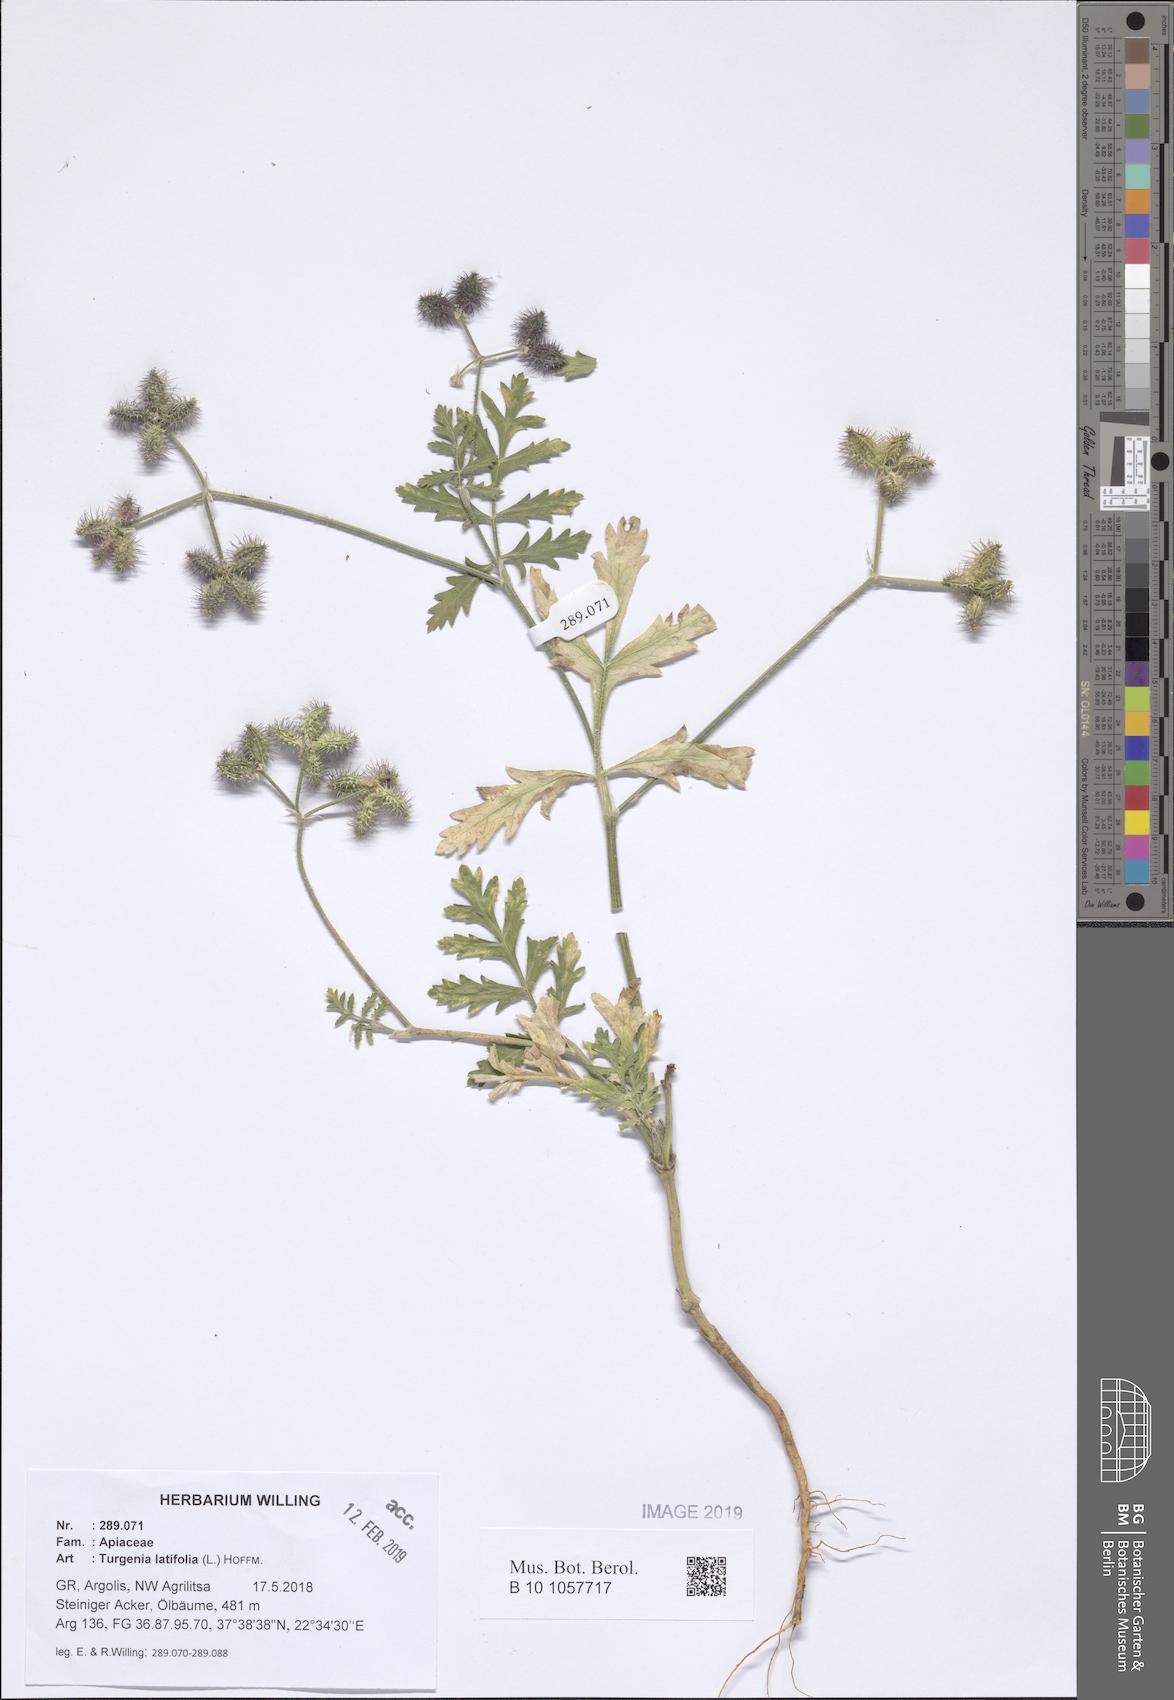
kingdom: Plantae
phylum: Tracheophyta
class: Magnoliopsida
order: Apiales
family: Apiaceae
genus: Turgenia
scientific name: Turgenia latifolia
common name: Greater bur-parsley
